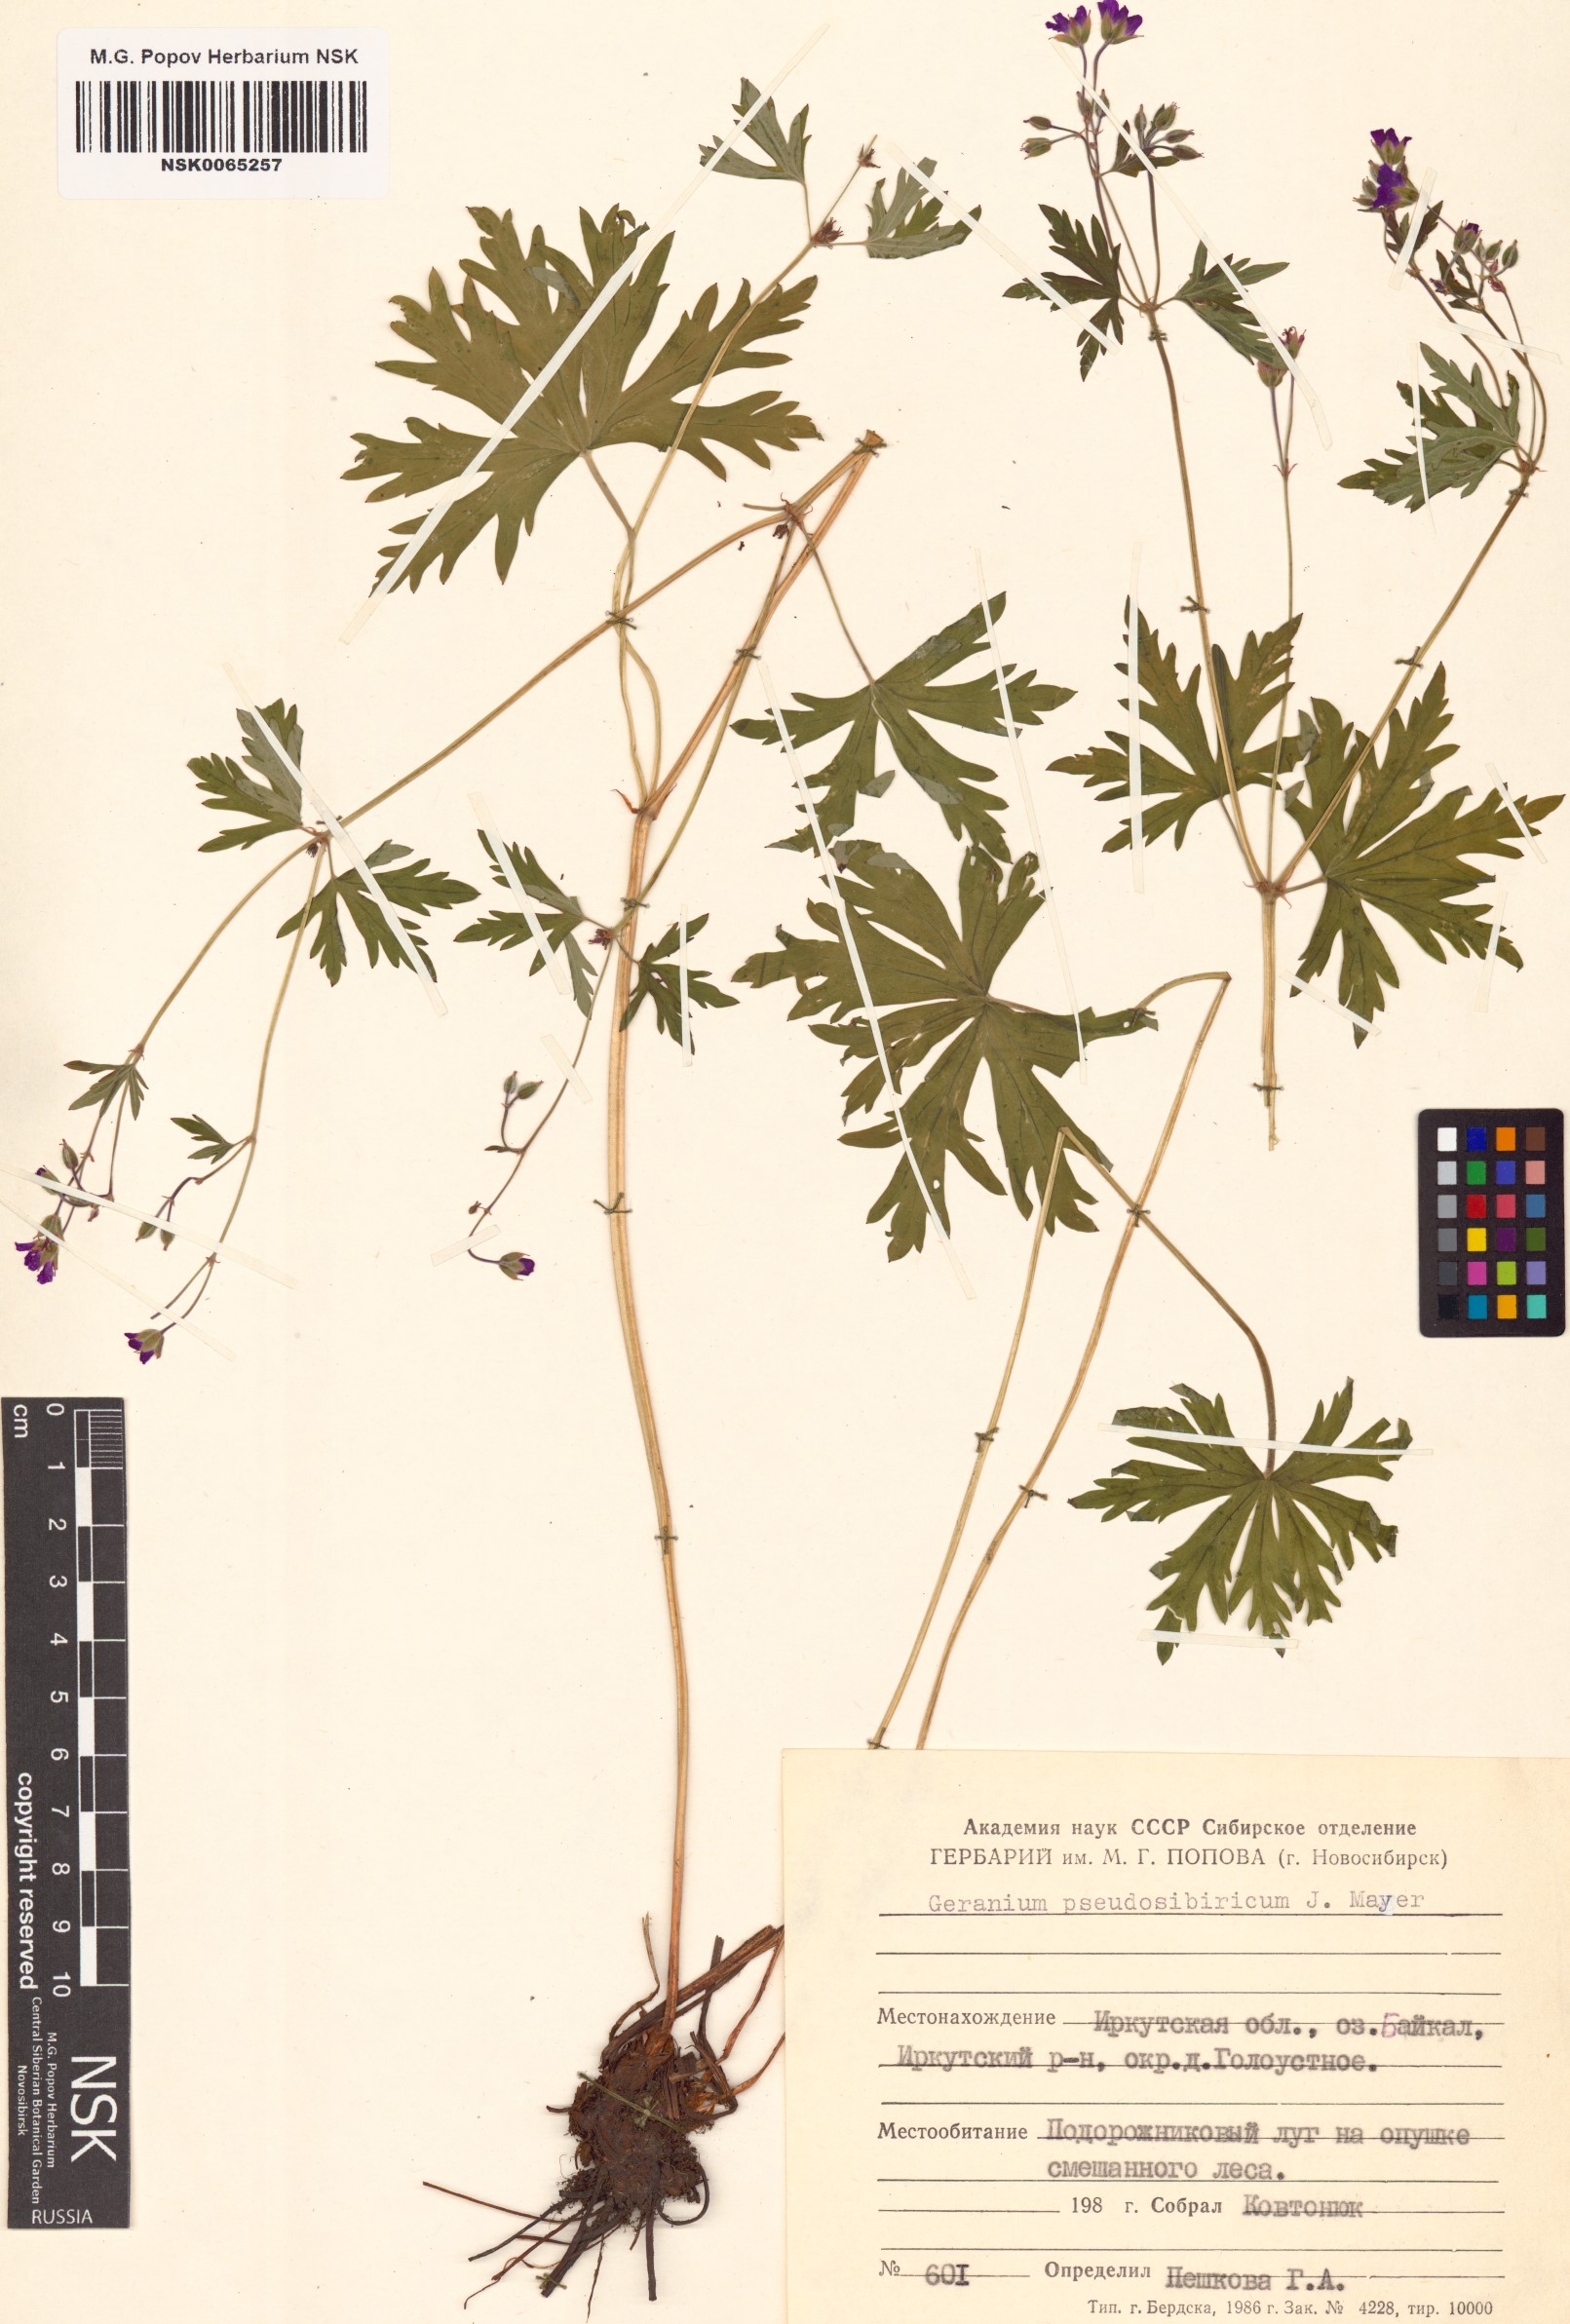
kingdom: Plantae
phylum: Tracheophyta
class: Magnoliopsida
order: Geraniales
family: Geraniaceae
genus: Geranium
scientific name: Geranium pseudosibiricum
